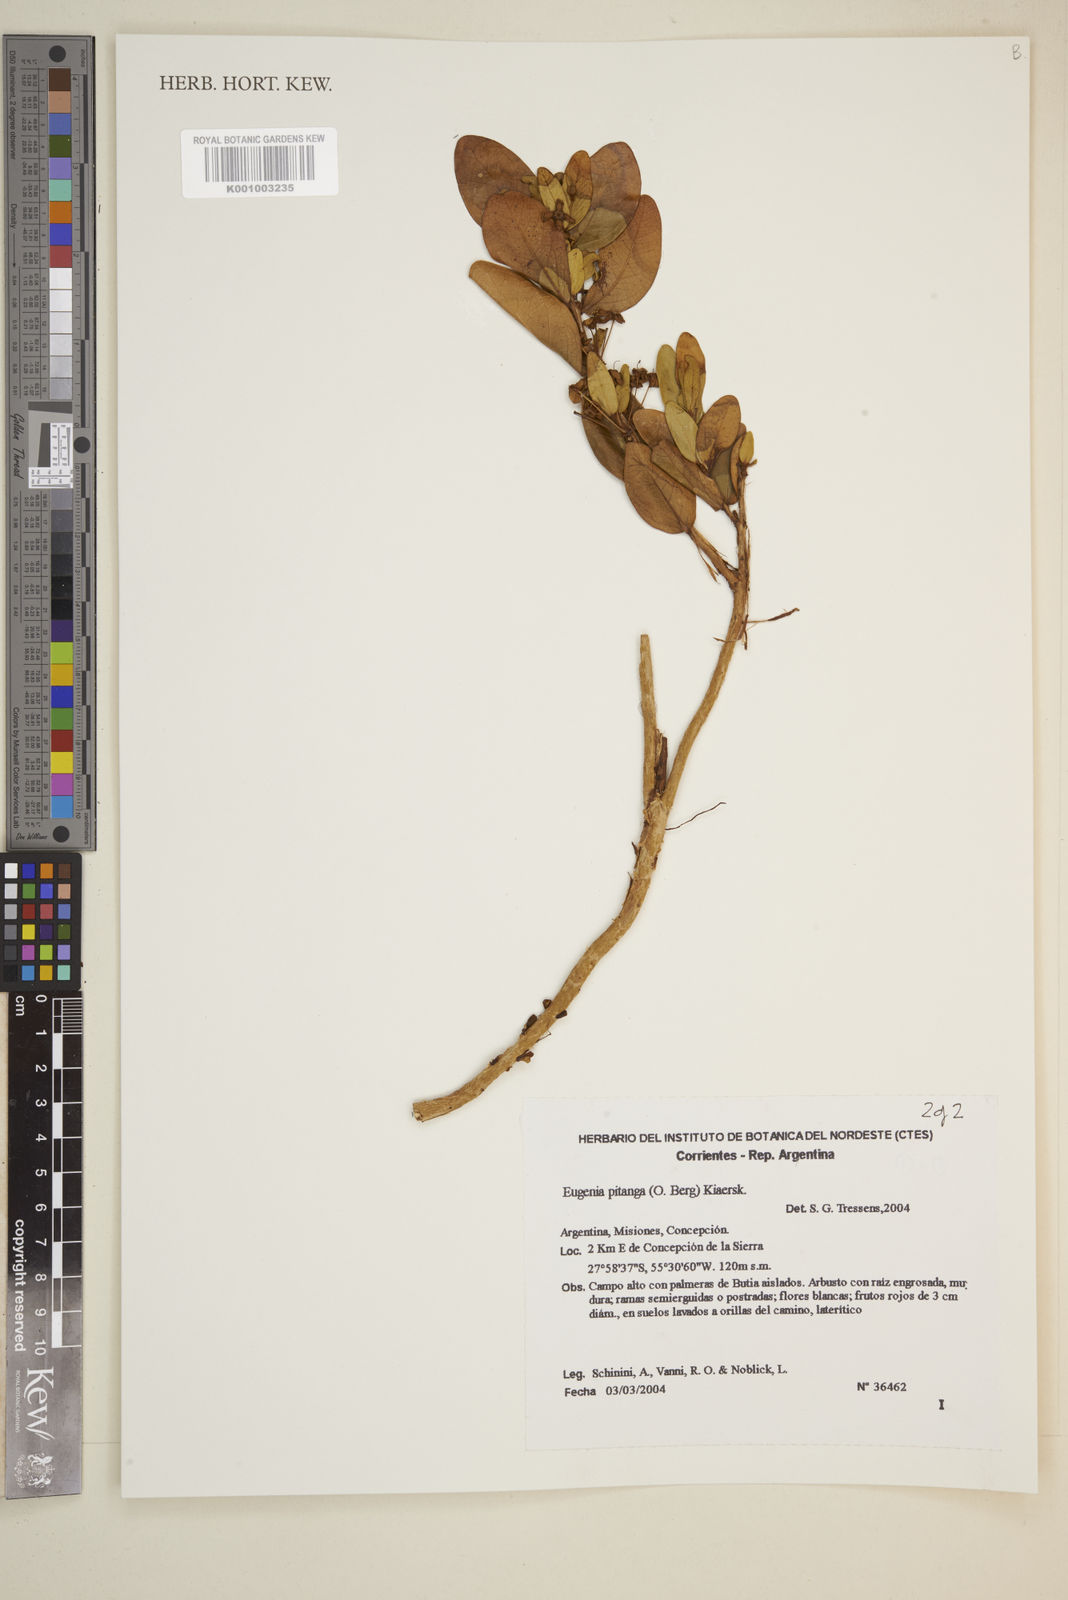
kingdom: Plantae
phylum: Tracheophyta
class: Magnoliopsida
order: Myrtales
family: Myrtaceae
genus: Eugenia
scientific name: Eugenia pitanga
